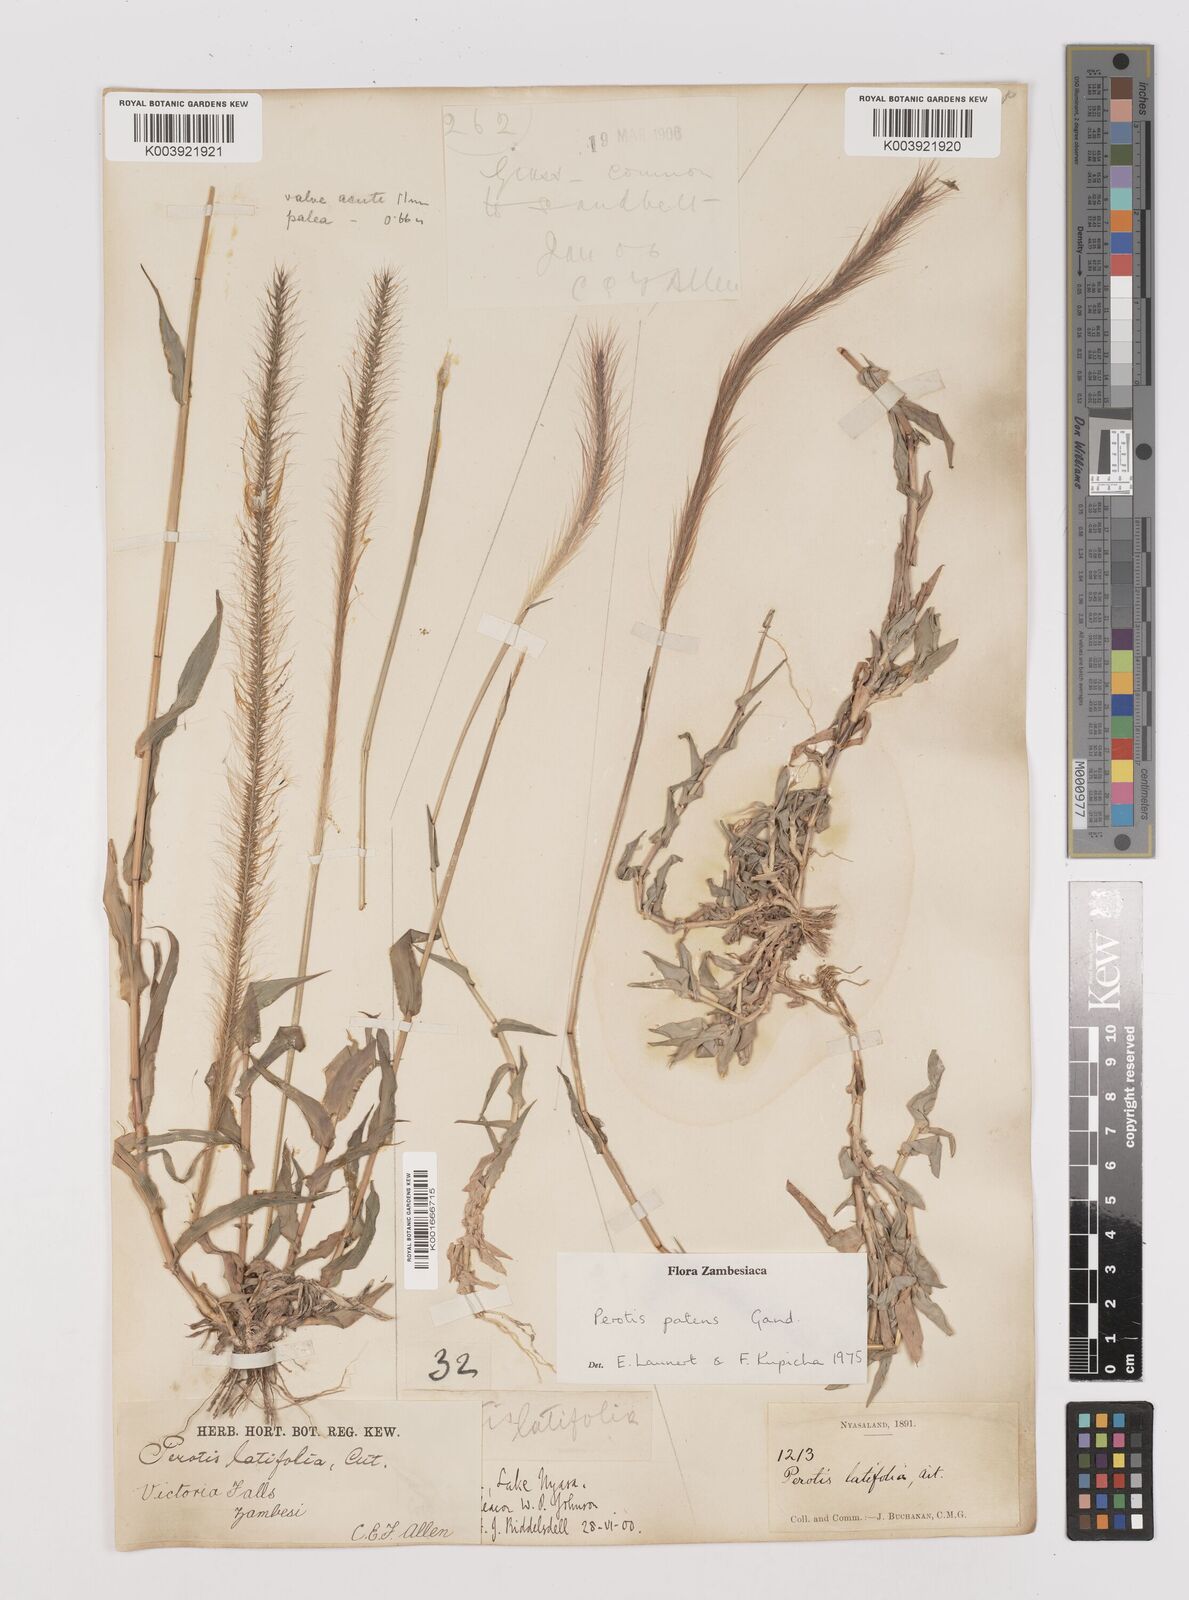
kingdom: Plantae
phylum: Tracheophyta
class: Liliopsida
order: Poales
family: Poaceae
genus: Perotis
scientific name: Perotis patens
